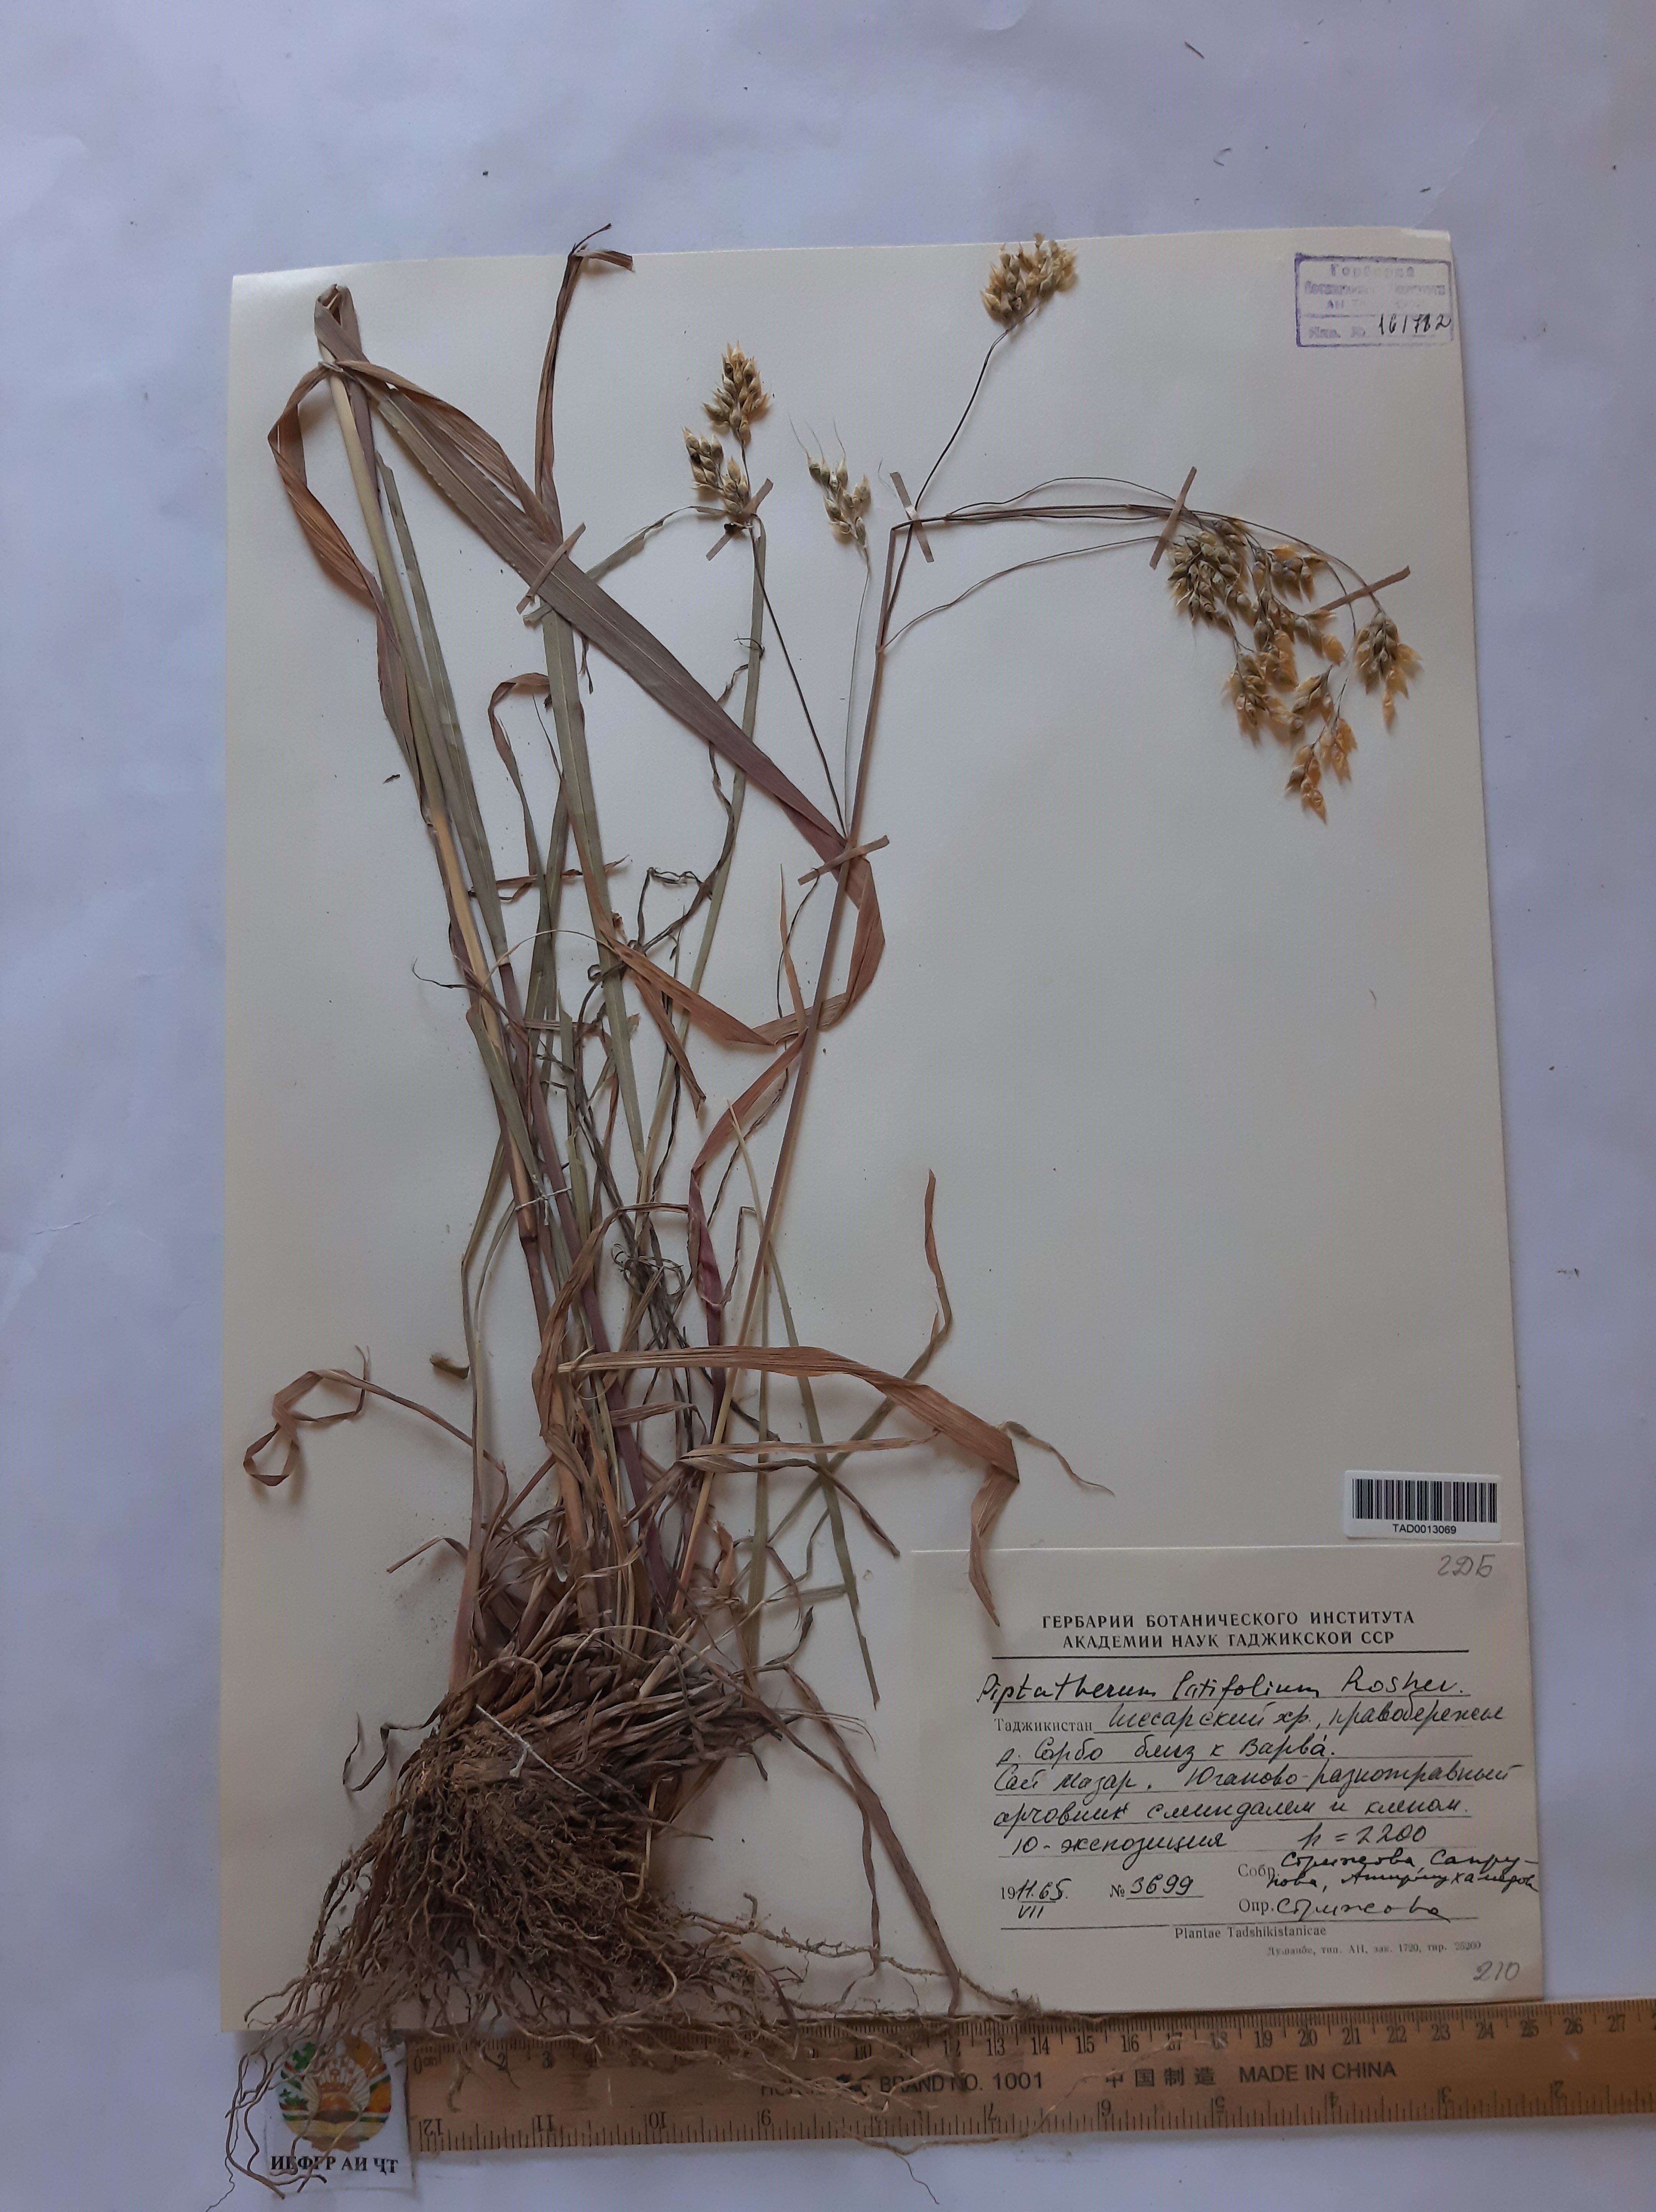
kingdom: Plantae
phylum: Tracheophyta
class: Liliopsida
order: Poales
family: Poaceae
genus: Piptatherum
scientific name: Piptatherum laterale
